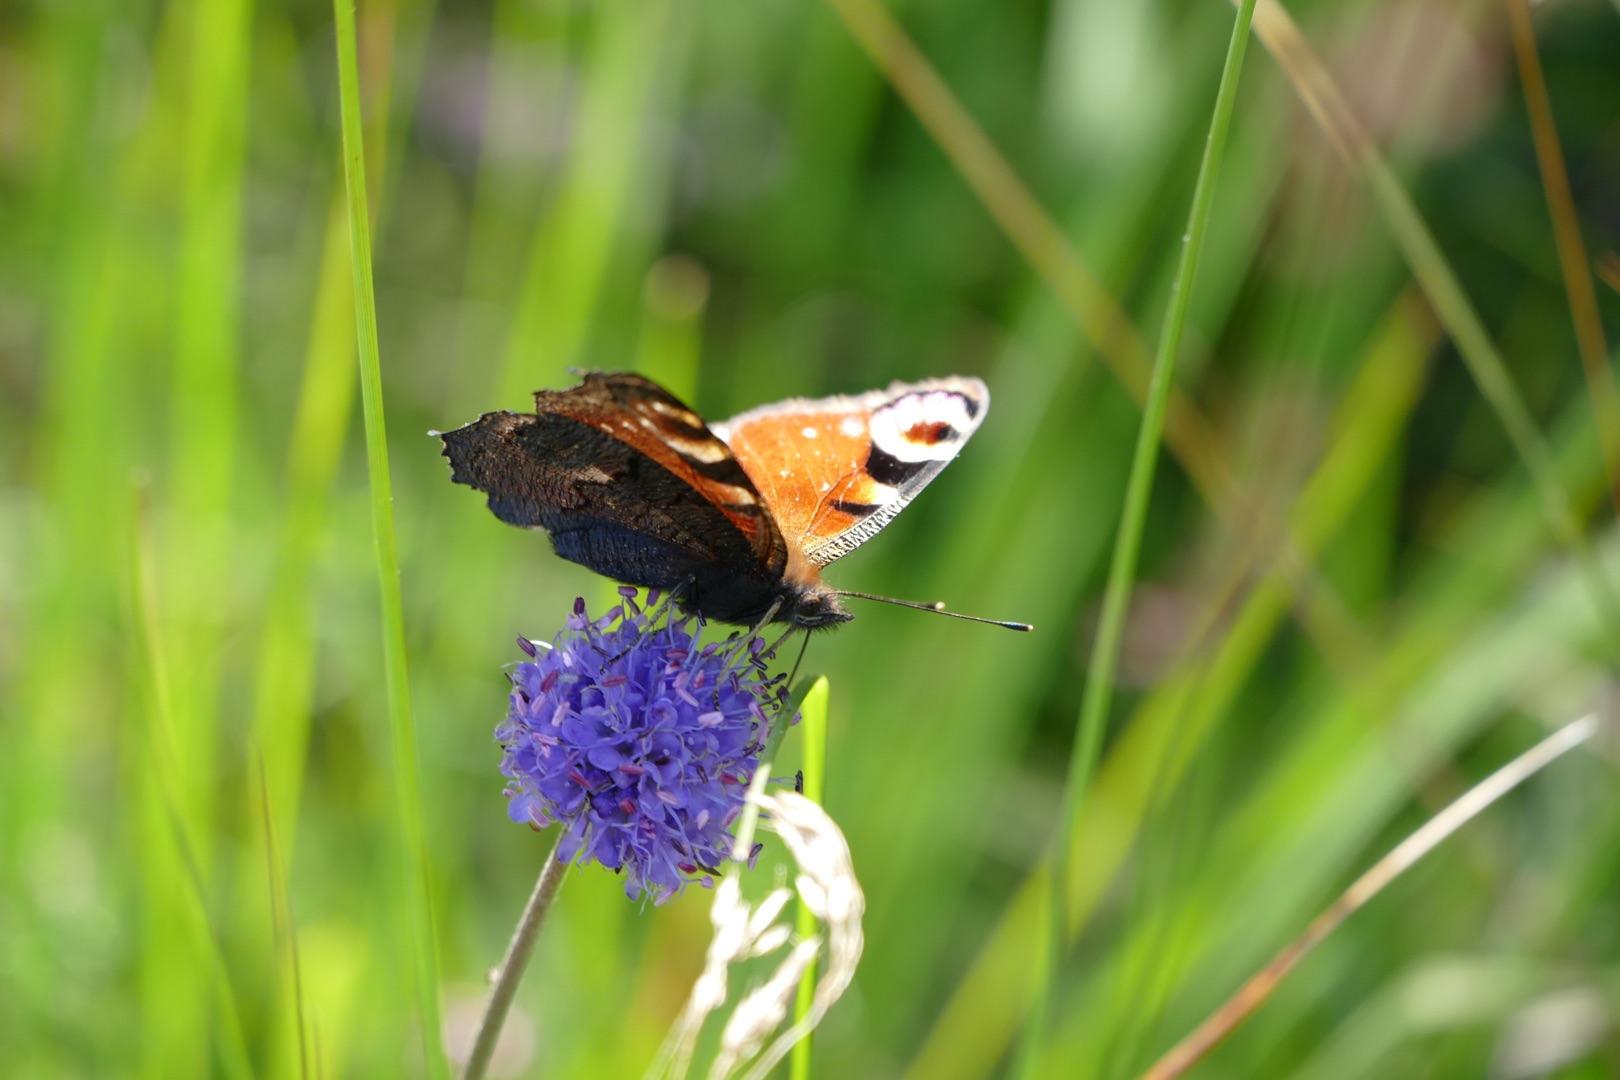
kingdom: Animalia
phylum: Arthropoda
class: Insecta
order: Lepidoptera
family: Nymphalidae
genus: Aglais
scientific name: Aglais io
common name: Dagpåfugleøje
